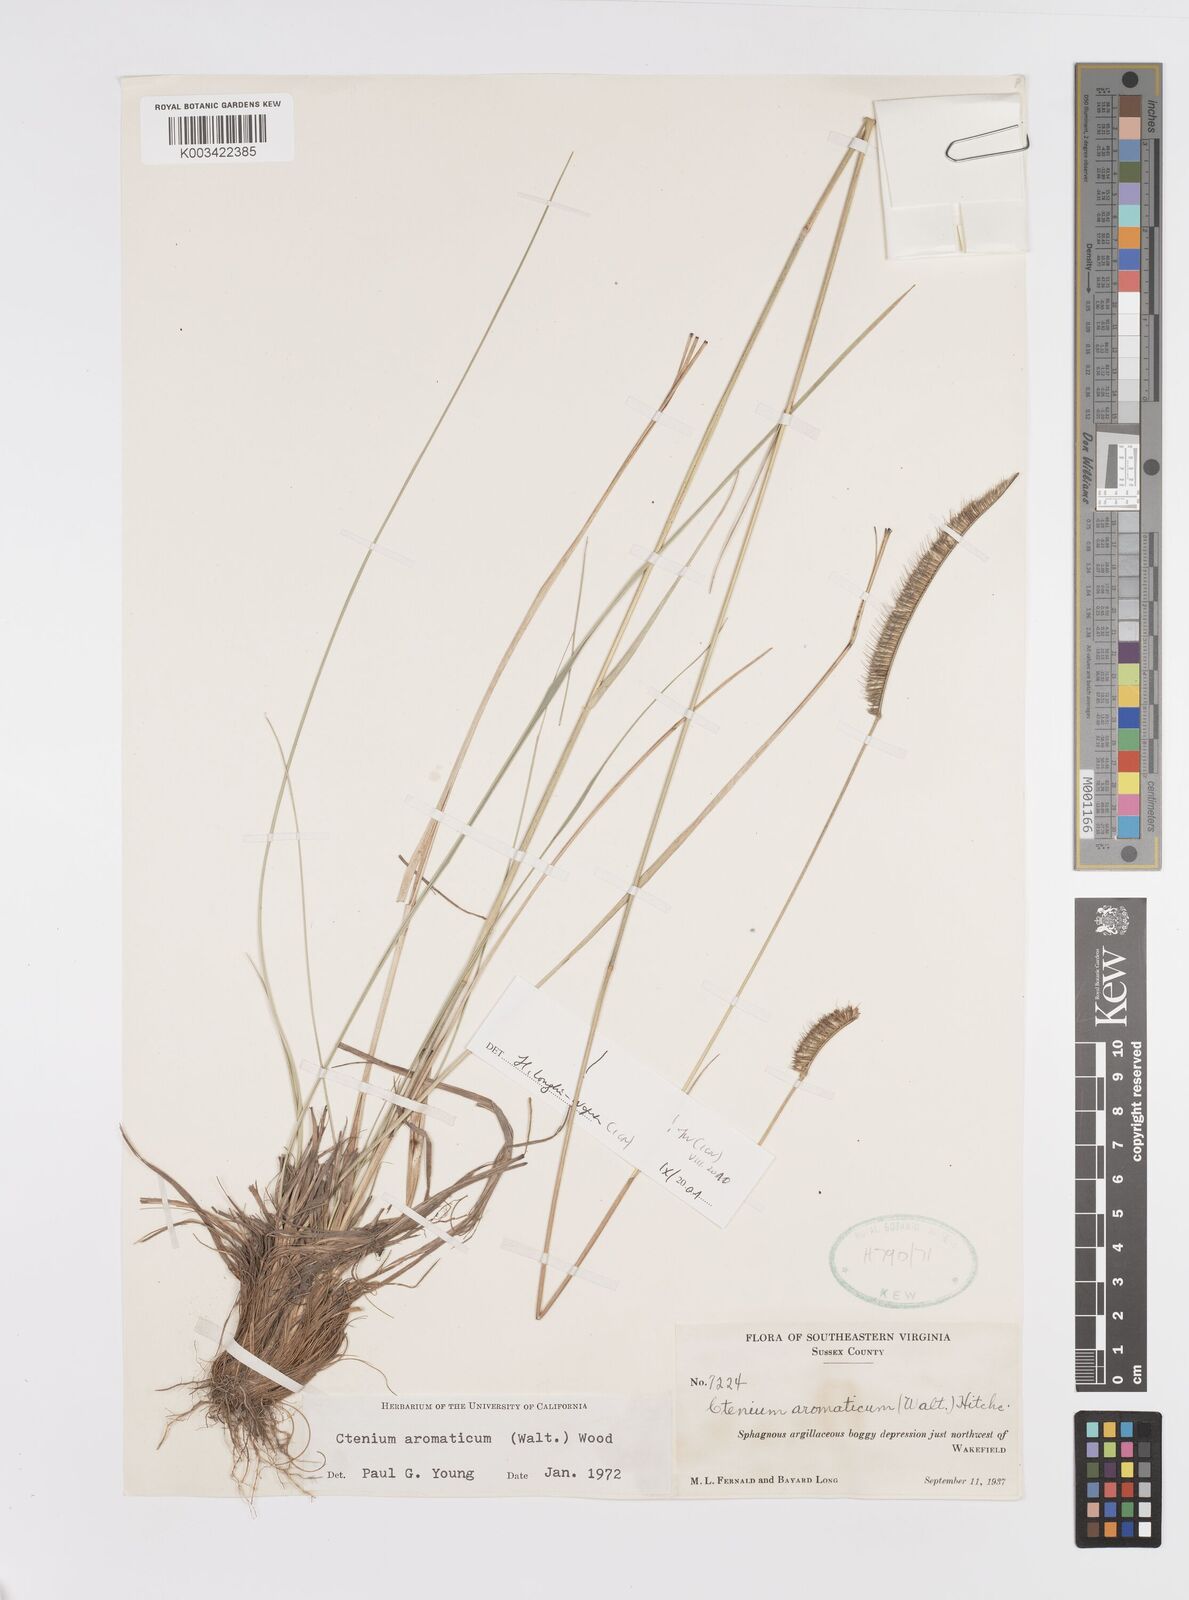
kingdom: Plantae
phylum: Tracheophyta
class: Liliopsida
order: Poales
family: Poaceae
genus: Ctenium
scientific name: Ctenium aromaticum
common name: Toothache grass
